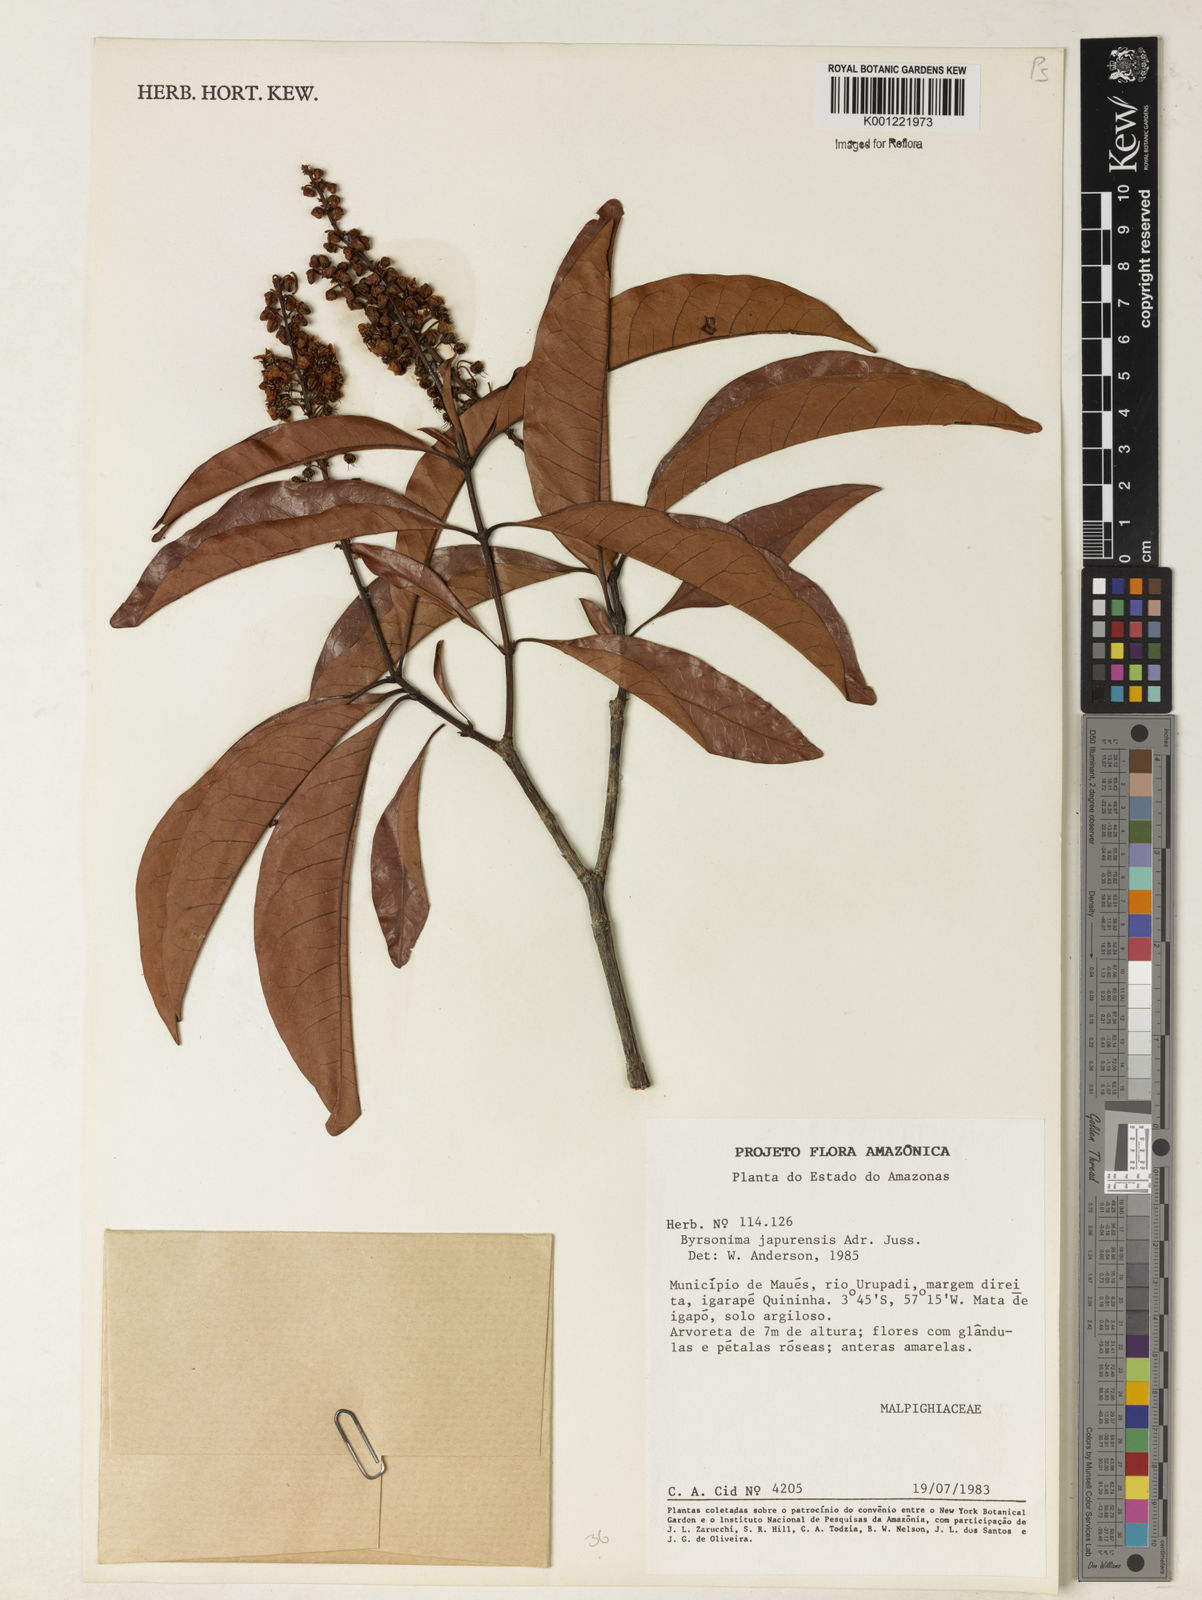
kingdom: Plantae
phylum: Tracheophyta
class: Magnoliopsida
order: Malpighiales
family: Malpighiaceae
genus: Byrsonima
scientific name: Byrsonima japurensis
